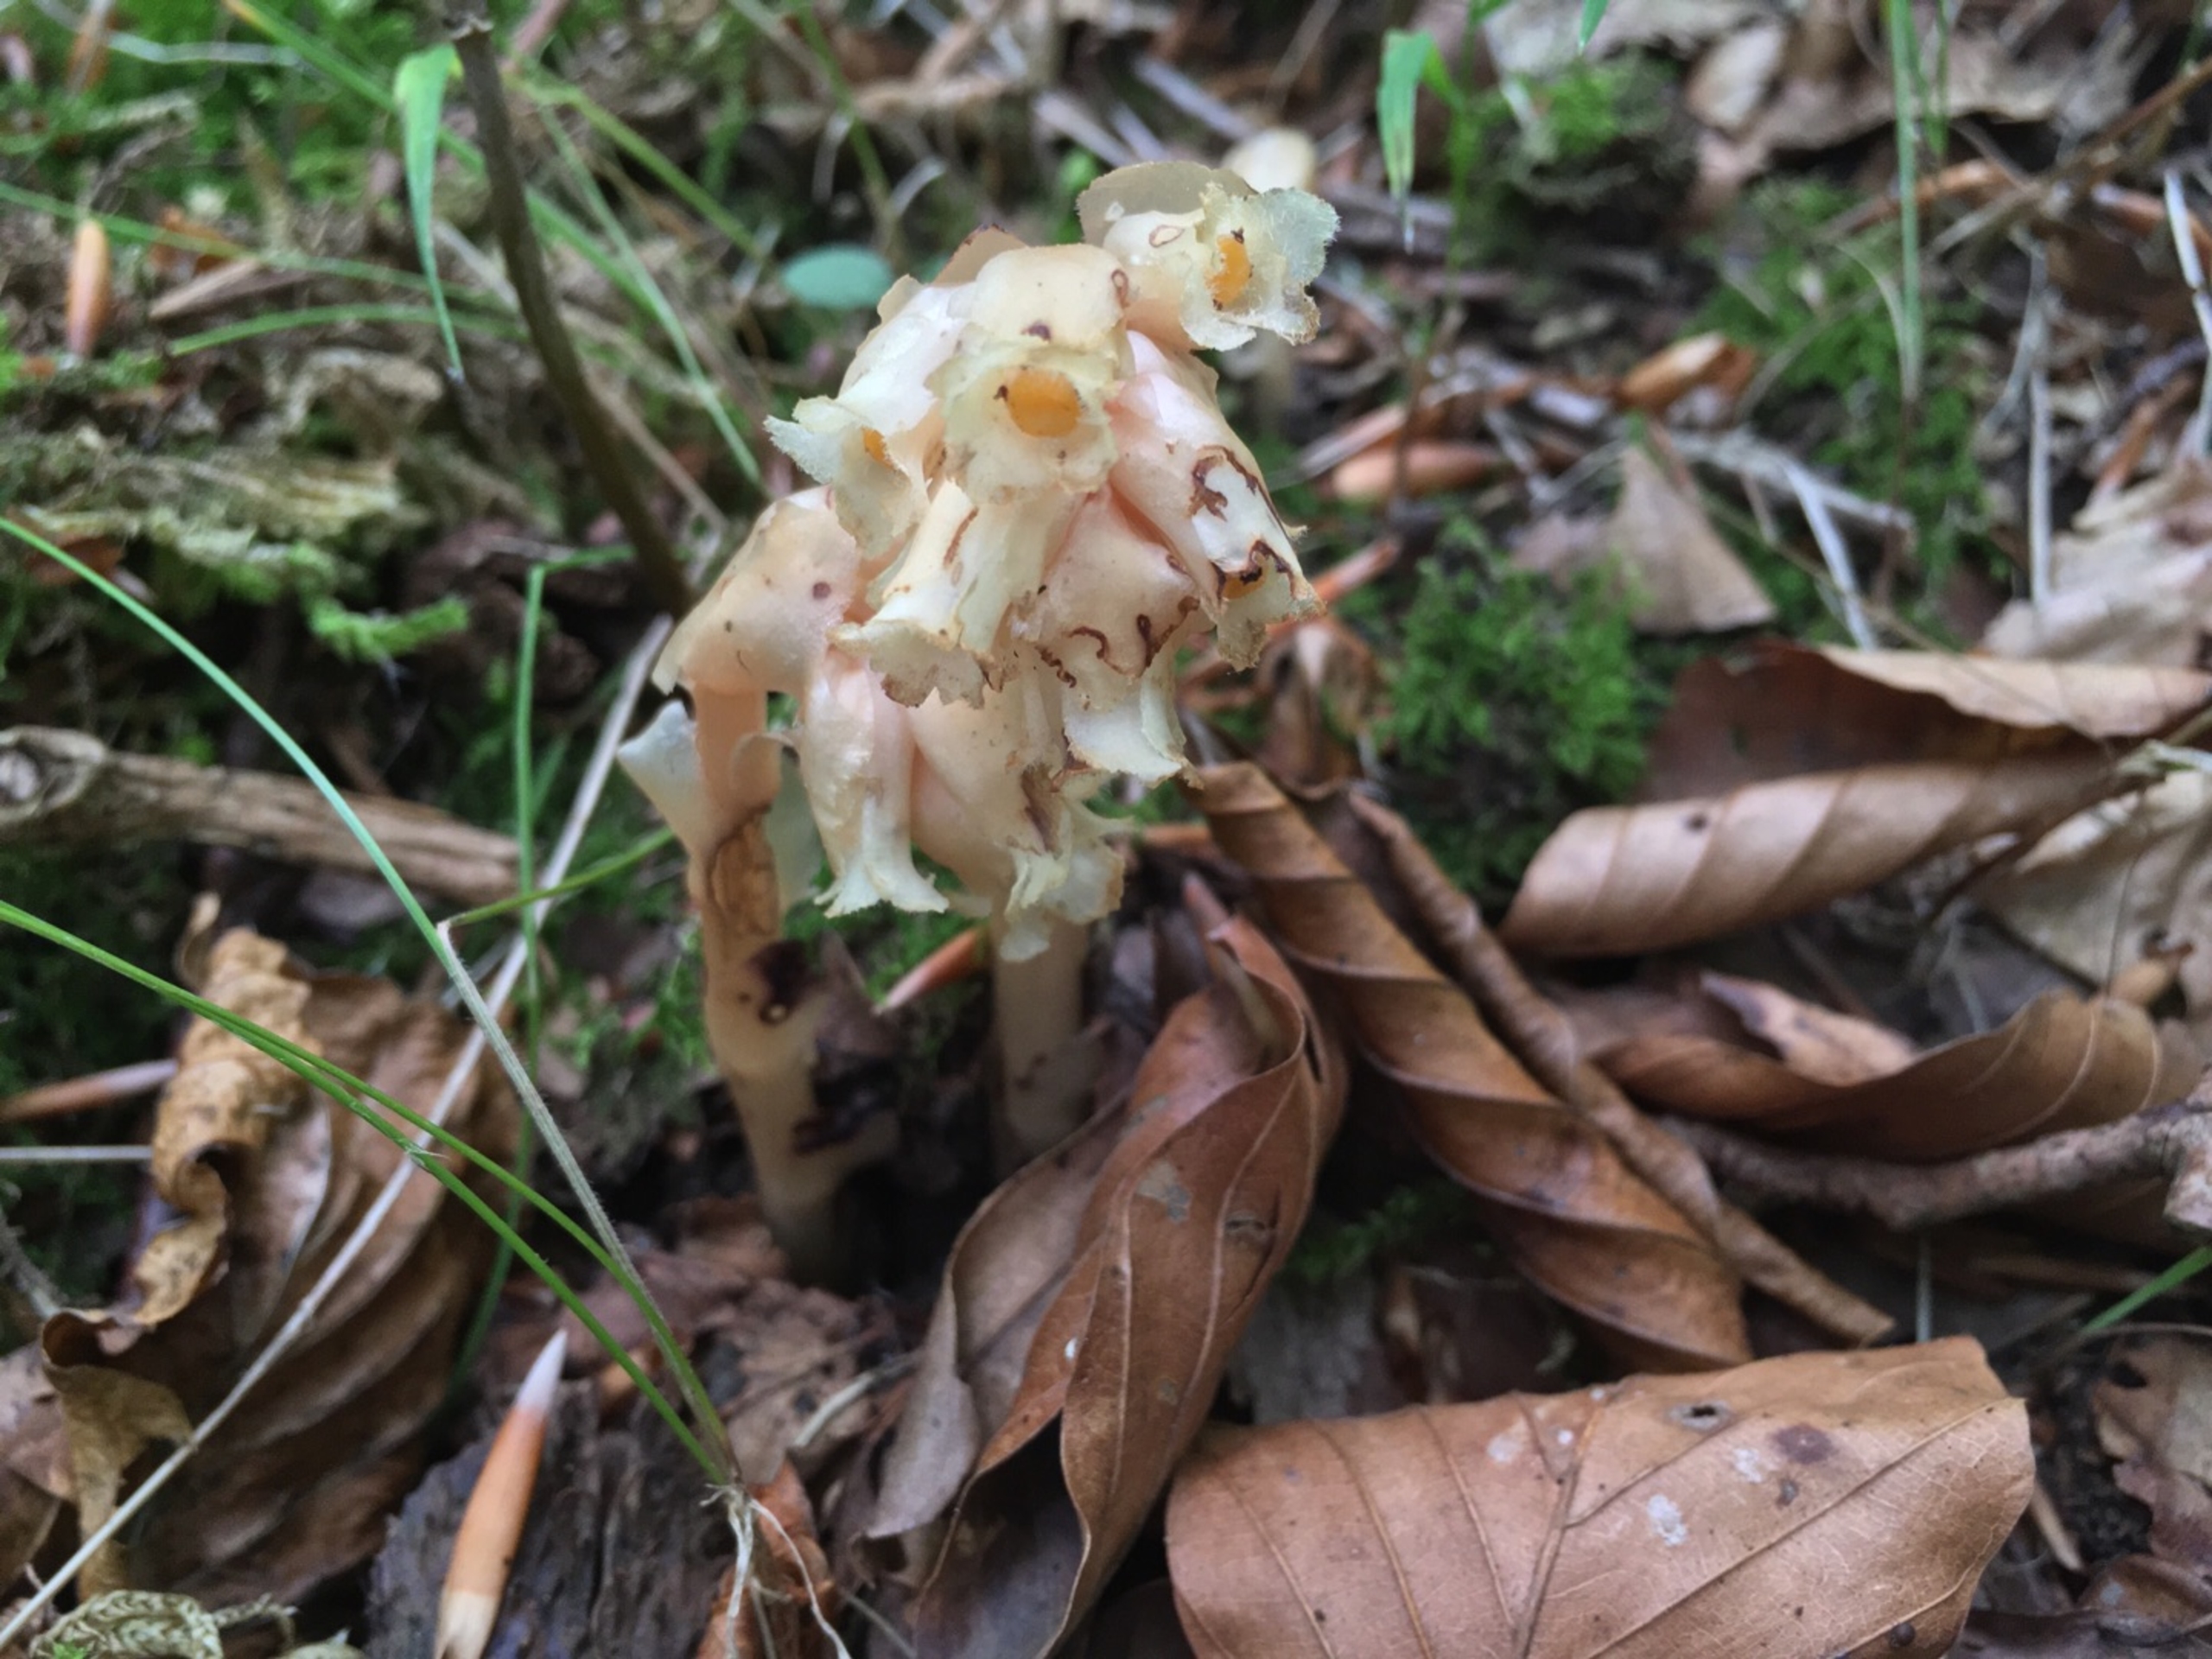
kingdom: Plantae
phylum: Tracheophyta
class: Magnoliopsida
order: Ericales
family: Ericaceae
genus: Hypopitys
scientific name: Hypopitys monotropa
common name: Snylterod
